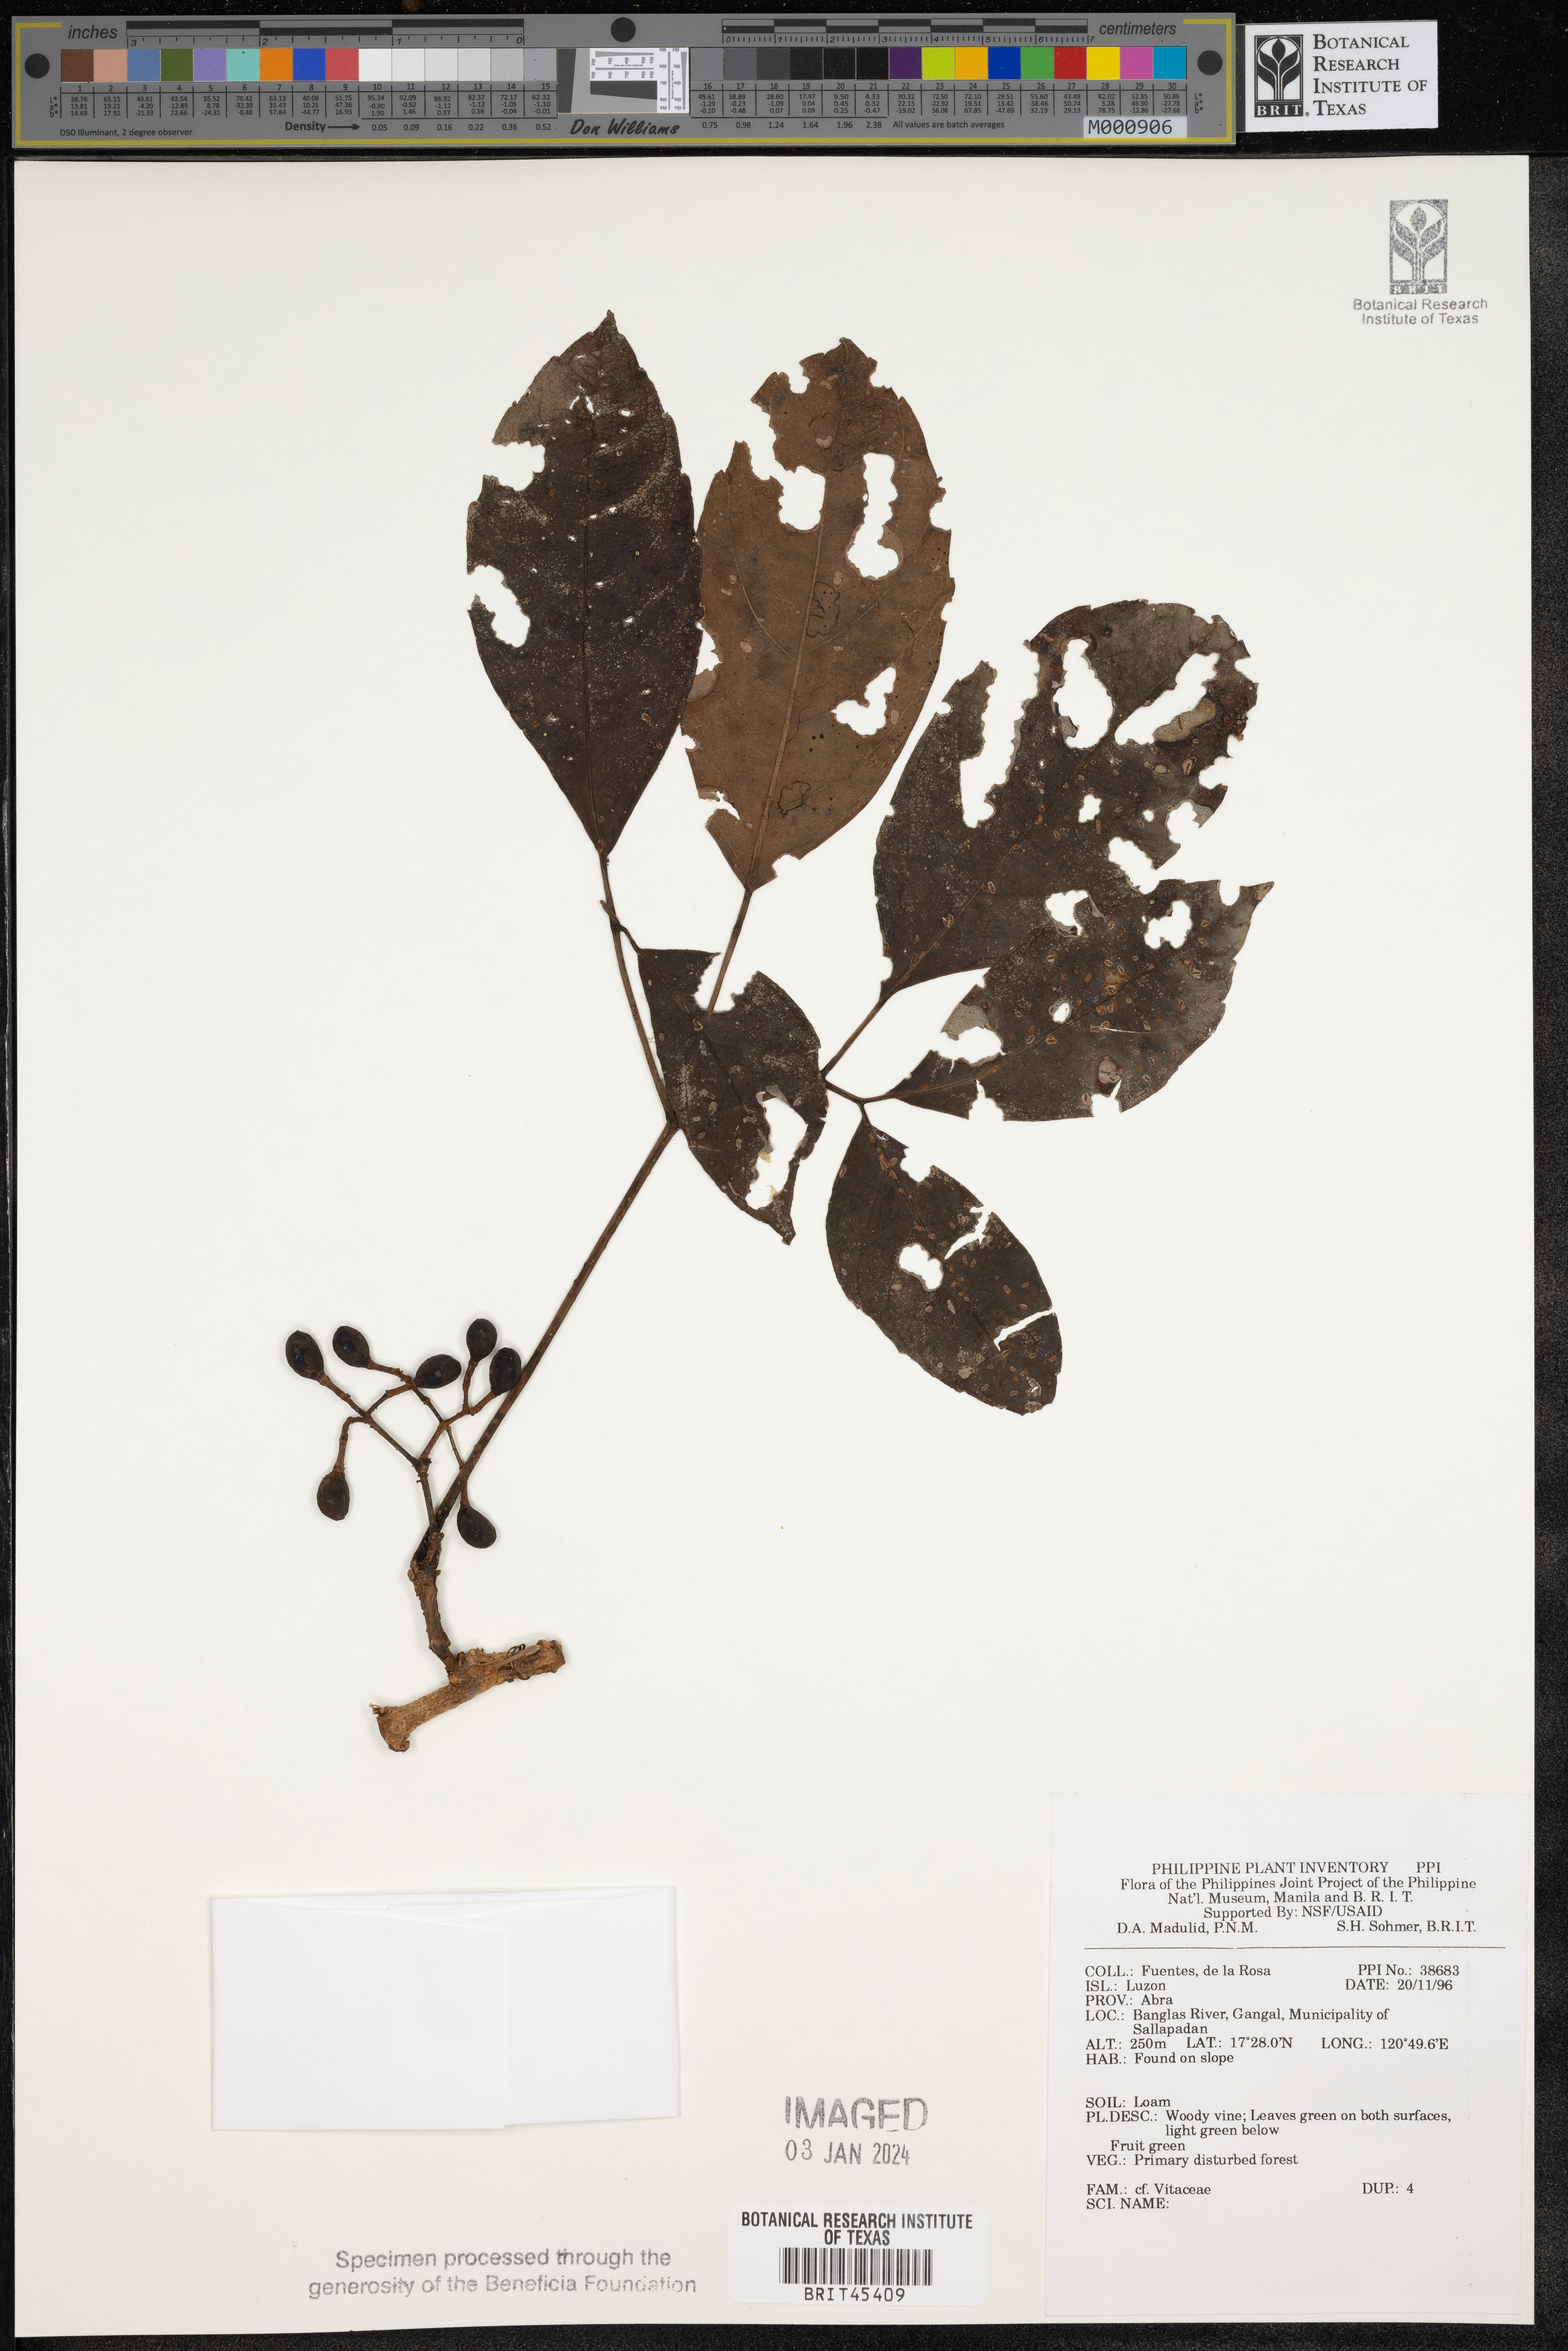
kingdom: Plantae
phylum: Tracheophyta
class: Magnoliopsida
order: Vitales
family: Vitaceae
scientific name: Vitaceae
